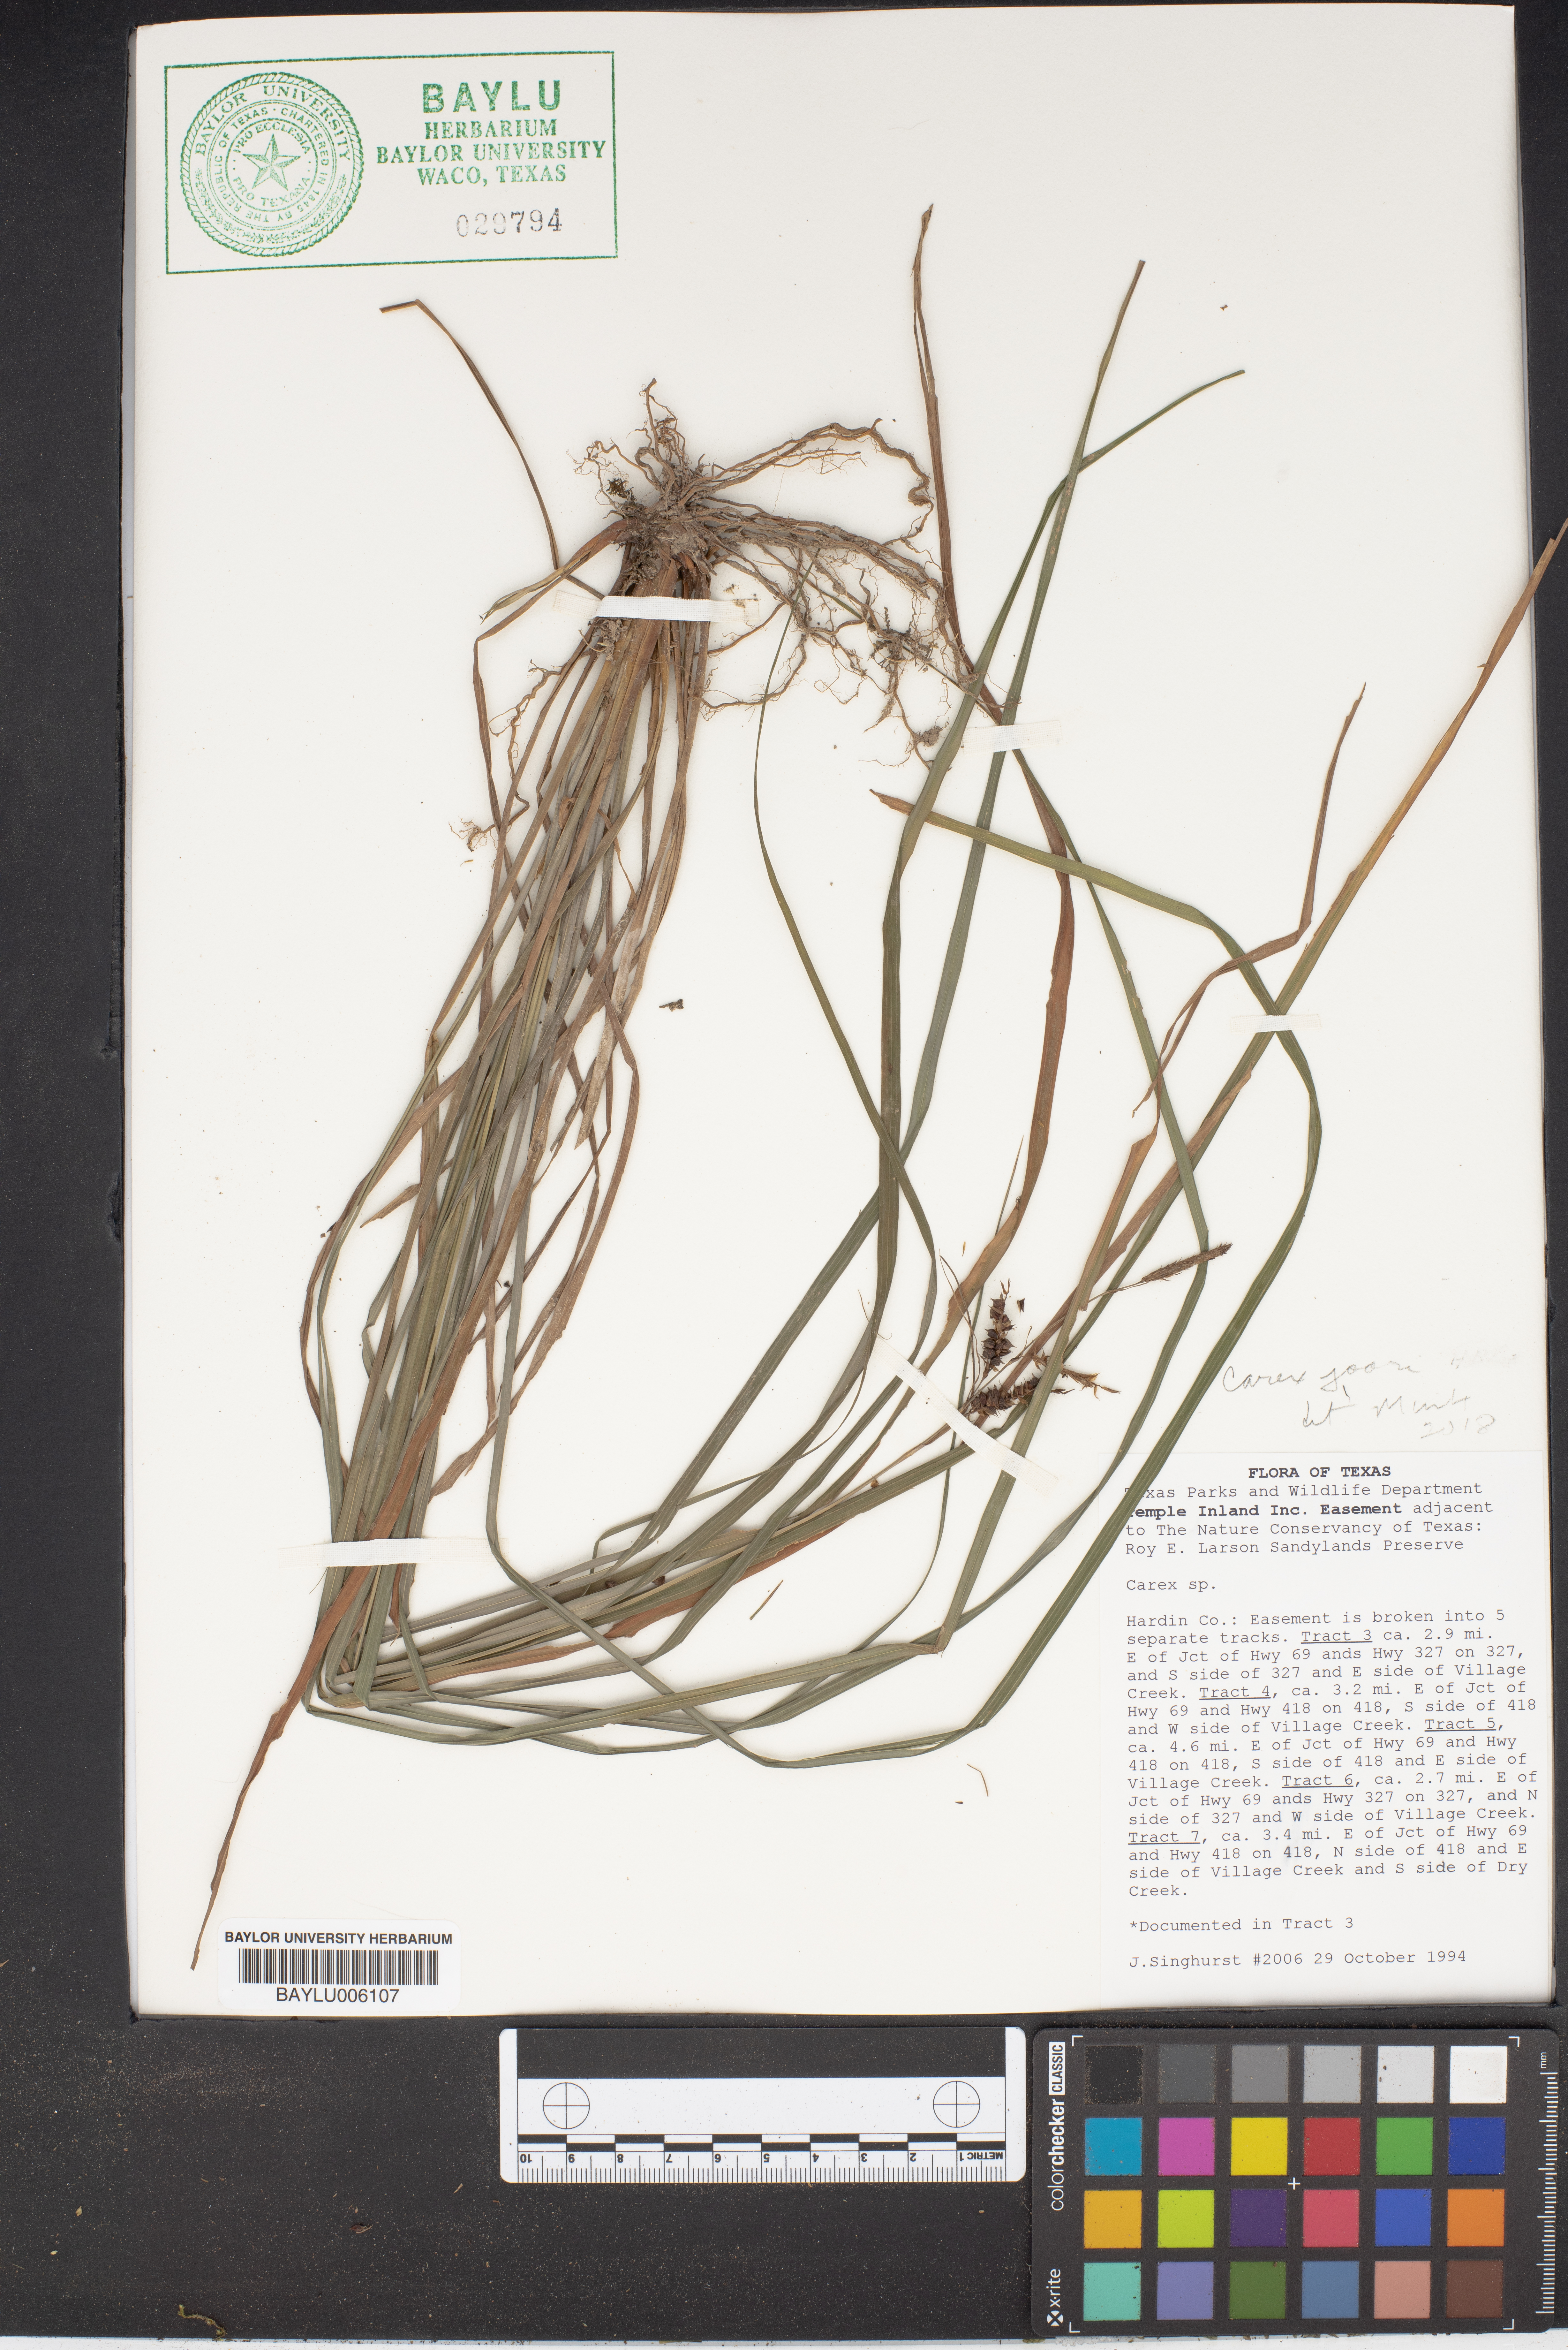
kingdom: Plantae
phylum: Tracheophyta
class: Liliopsida
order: Poales
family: Cyperaceae
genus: Carex
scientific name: Carex
